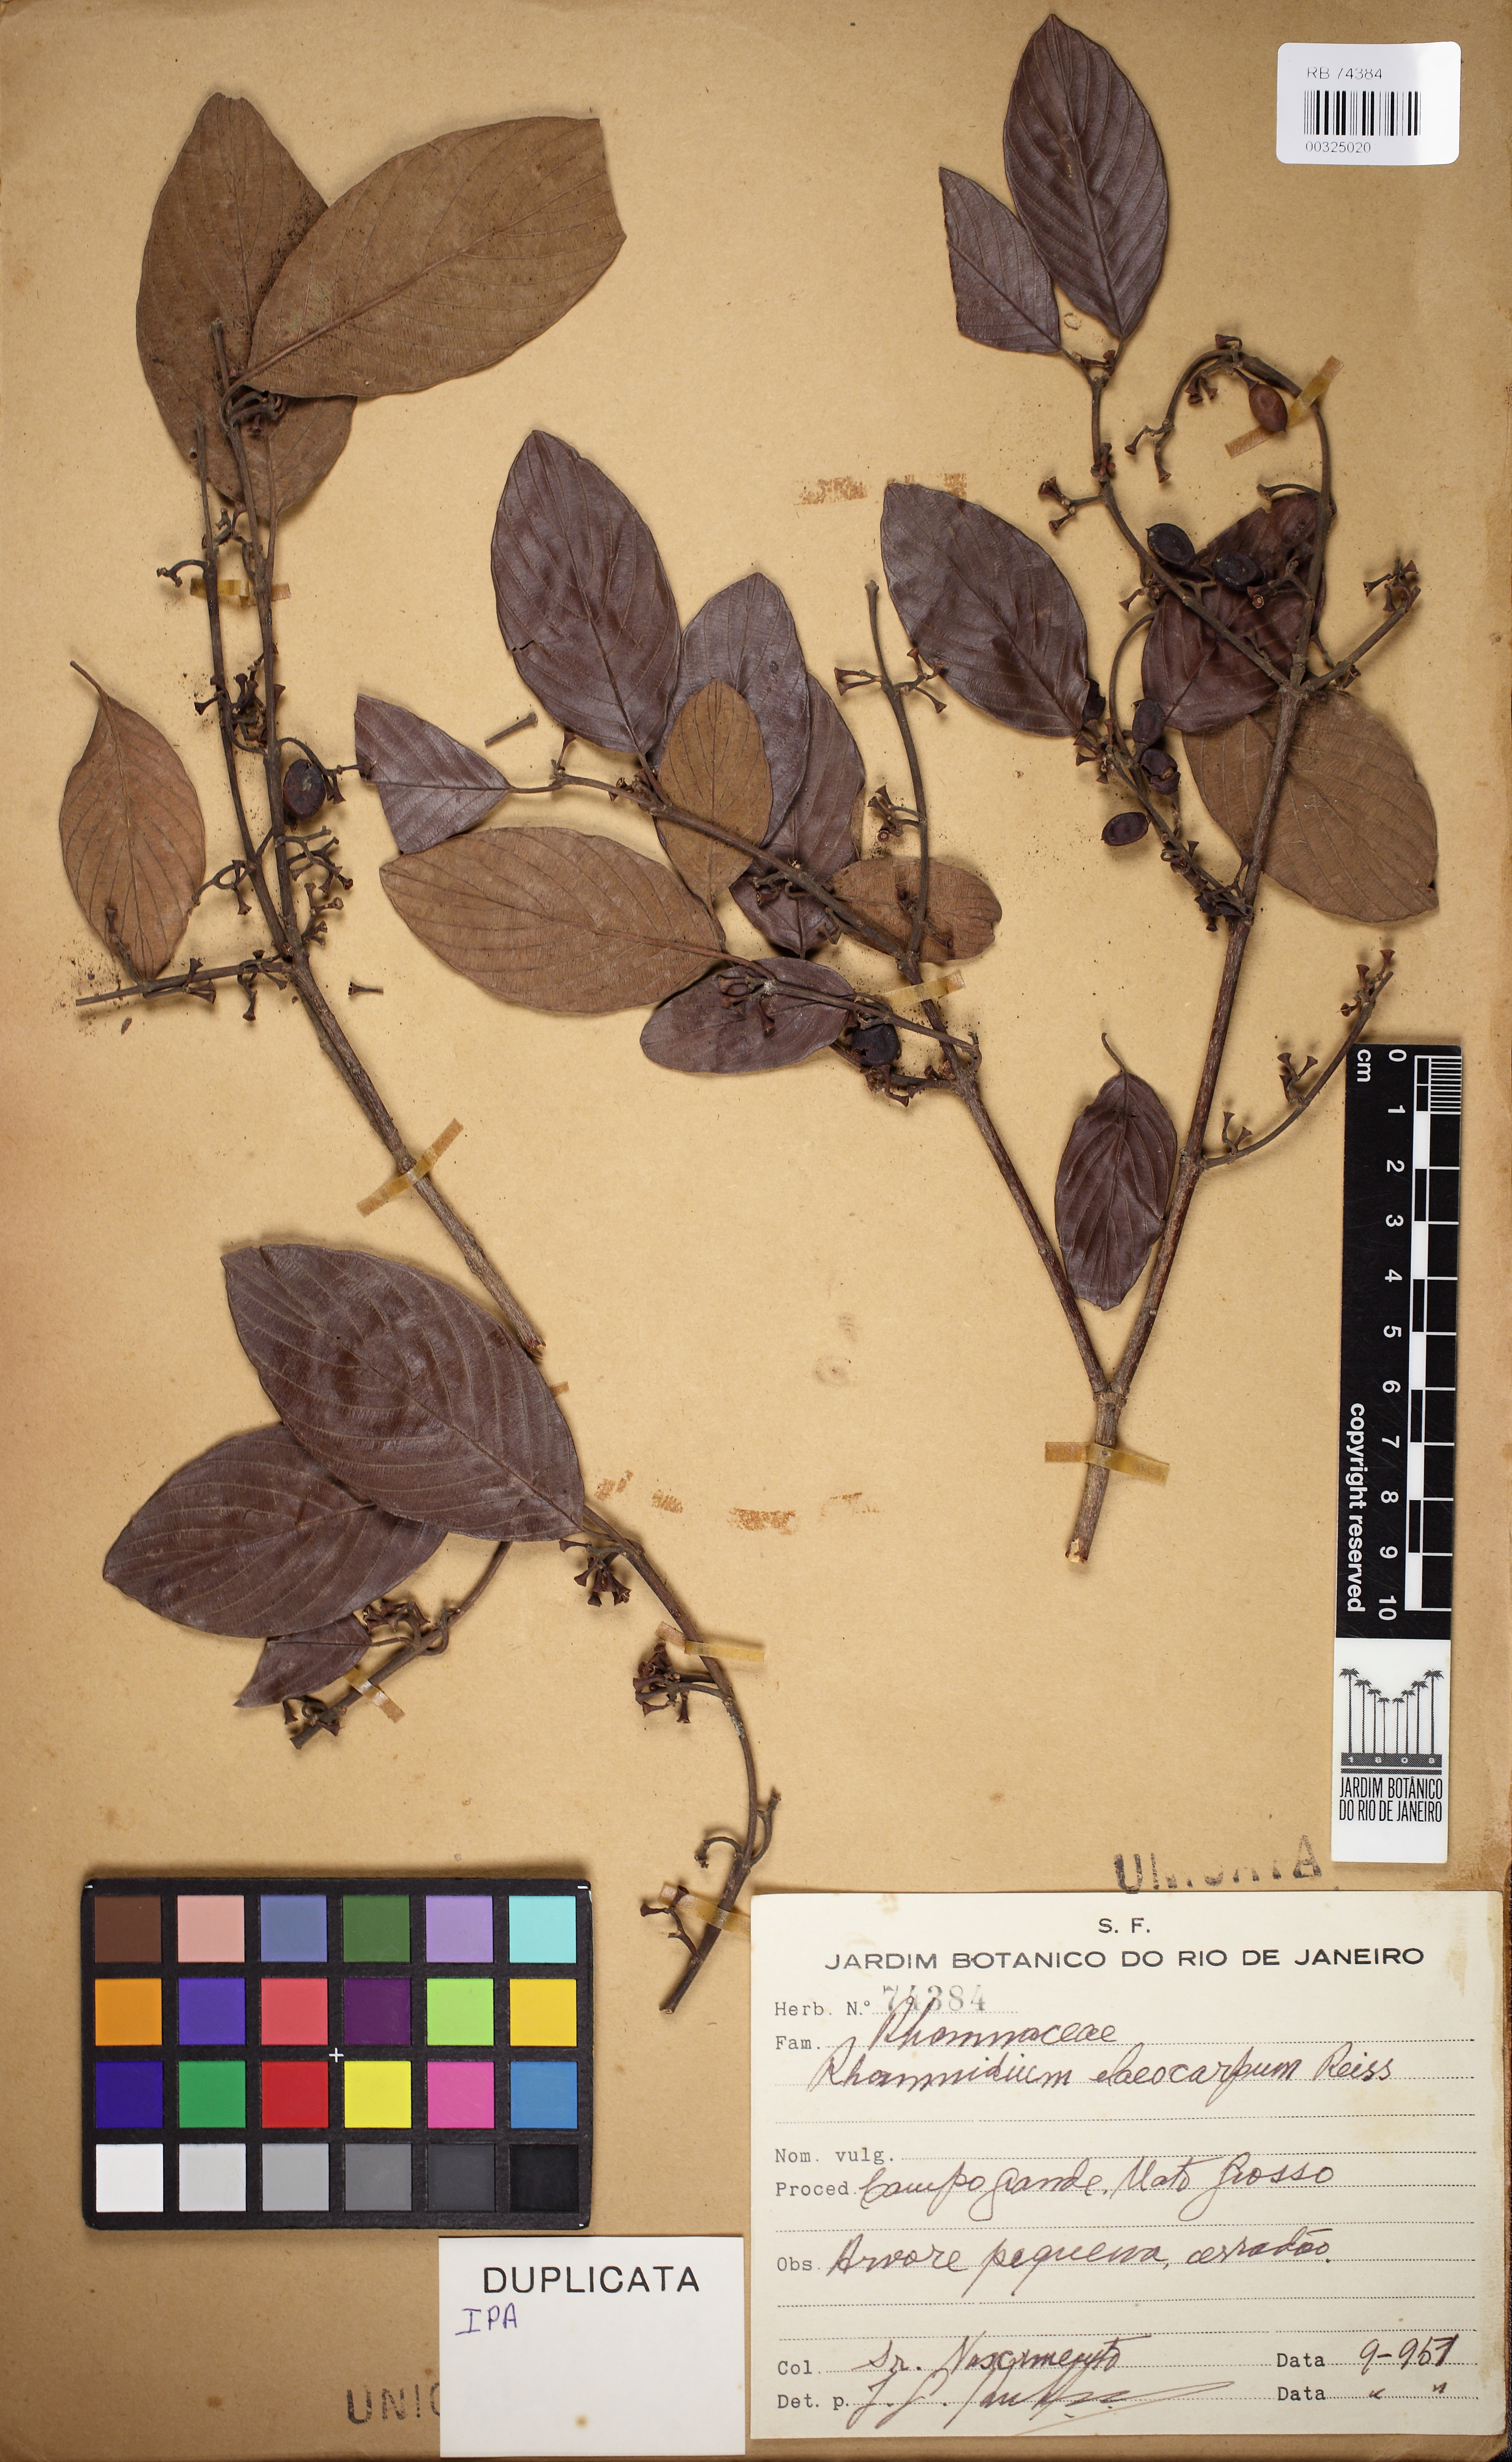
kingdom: Plantae
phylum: Tracheophyta
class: Magnoliopsida
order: Rosales
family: Rhamnaceae
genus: Rhamnidium
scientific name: Rhamnidium elaeocarpum
